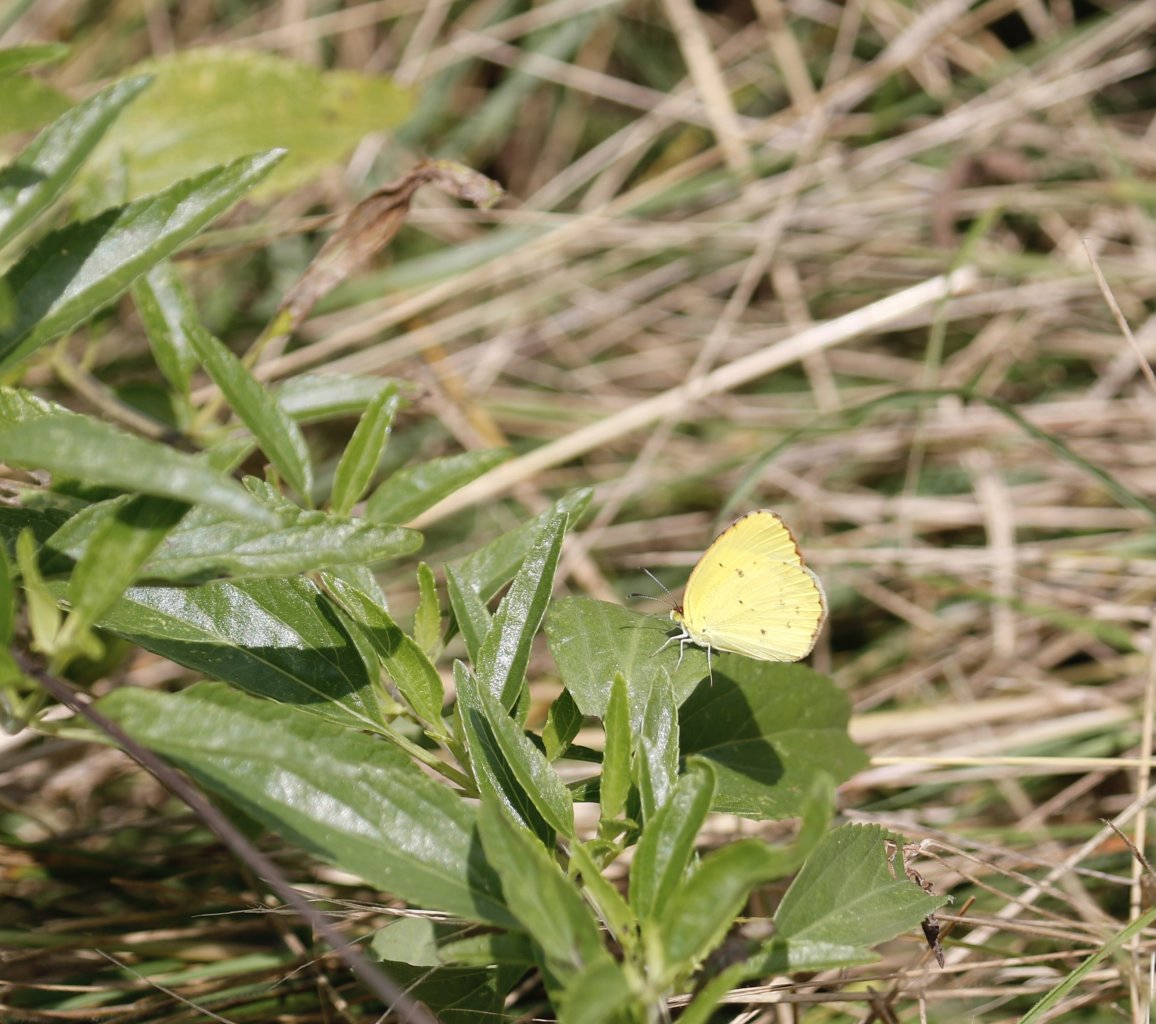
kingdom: Animalia
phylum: Arthropoda
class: Insecta
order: Lepidoptera
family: Pieridae
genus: Abaeis
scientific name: Abaeis nicippe
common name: Sleepy Orange
